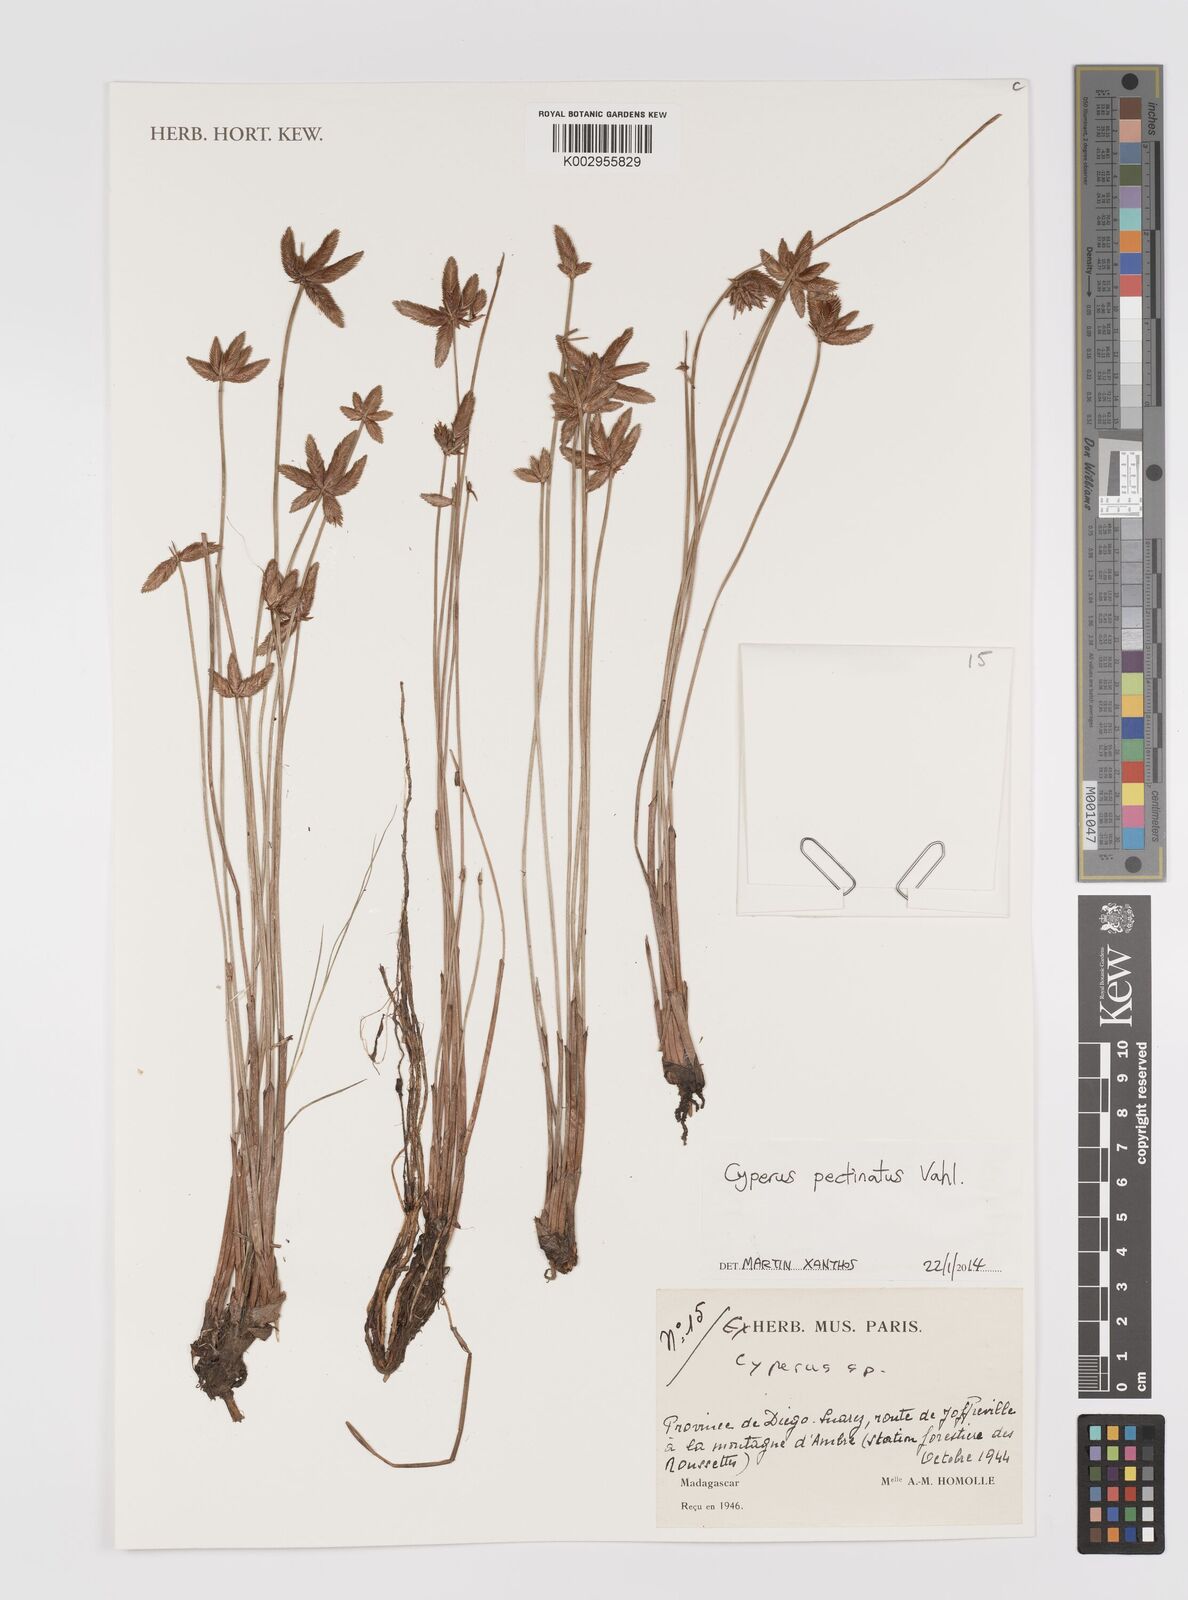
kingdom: Plantae
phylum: Tracheophyta
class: Liliopsida
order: Poales
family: Cyperaceae
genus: Cyperus
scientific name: Cyperus compressus
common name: Poorland flatsedge
